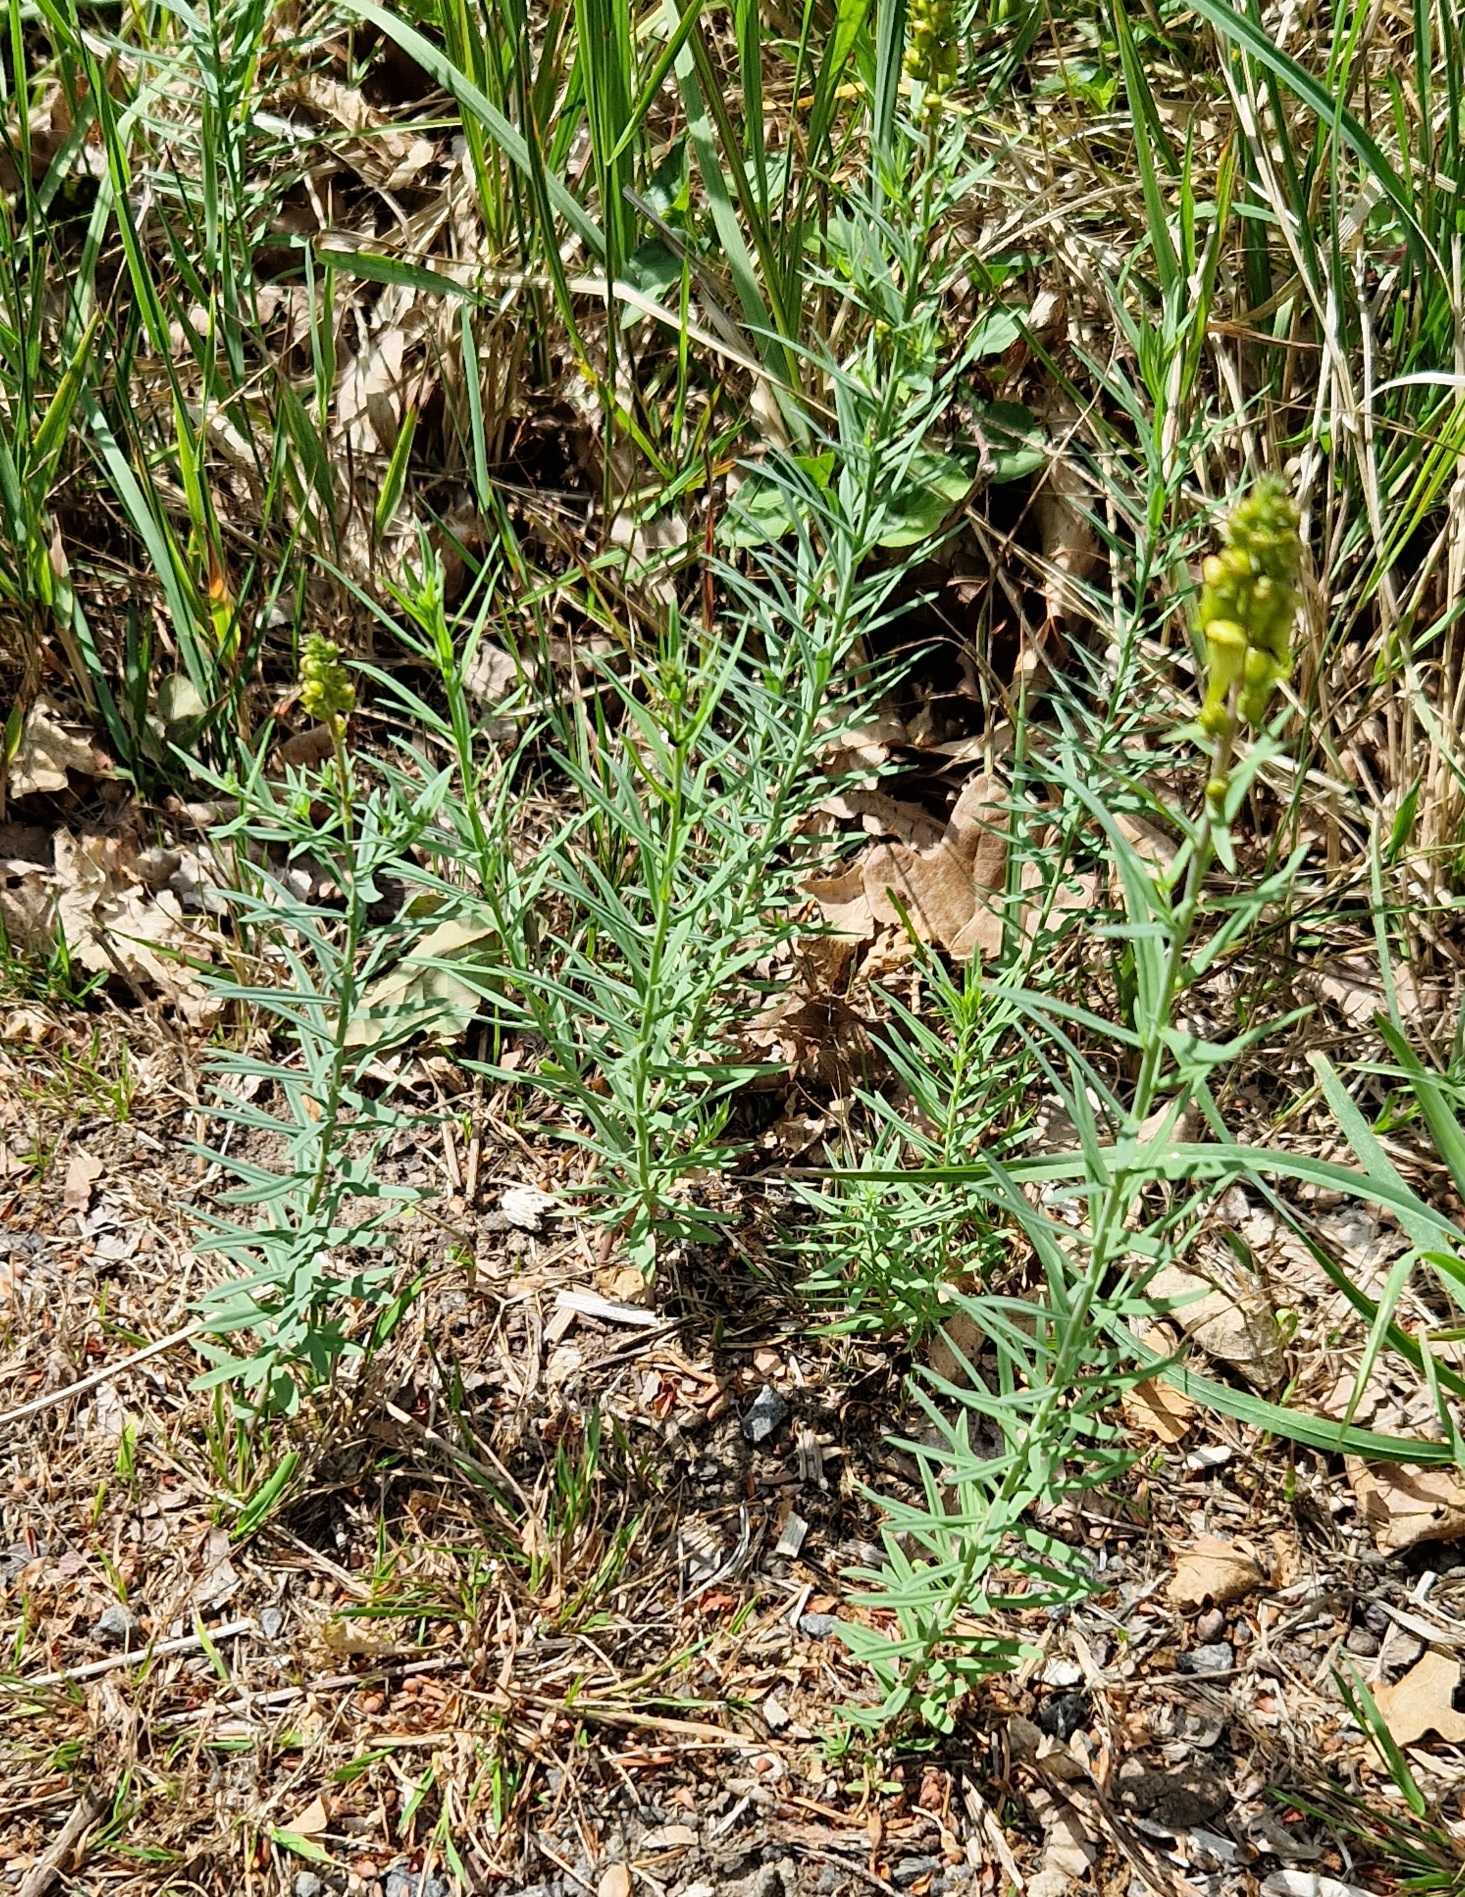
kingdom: Plantae
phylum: Tracheophyta
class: Magnoliopsida
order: Lamiales
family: Plantaginaceae
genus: Linaria
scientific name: Linaria vulgaris
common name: Almindelig torskemund
